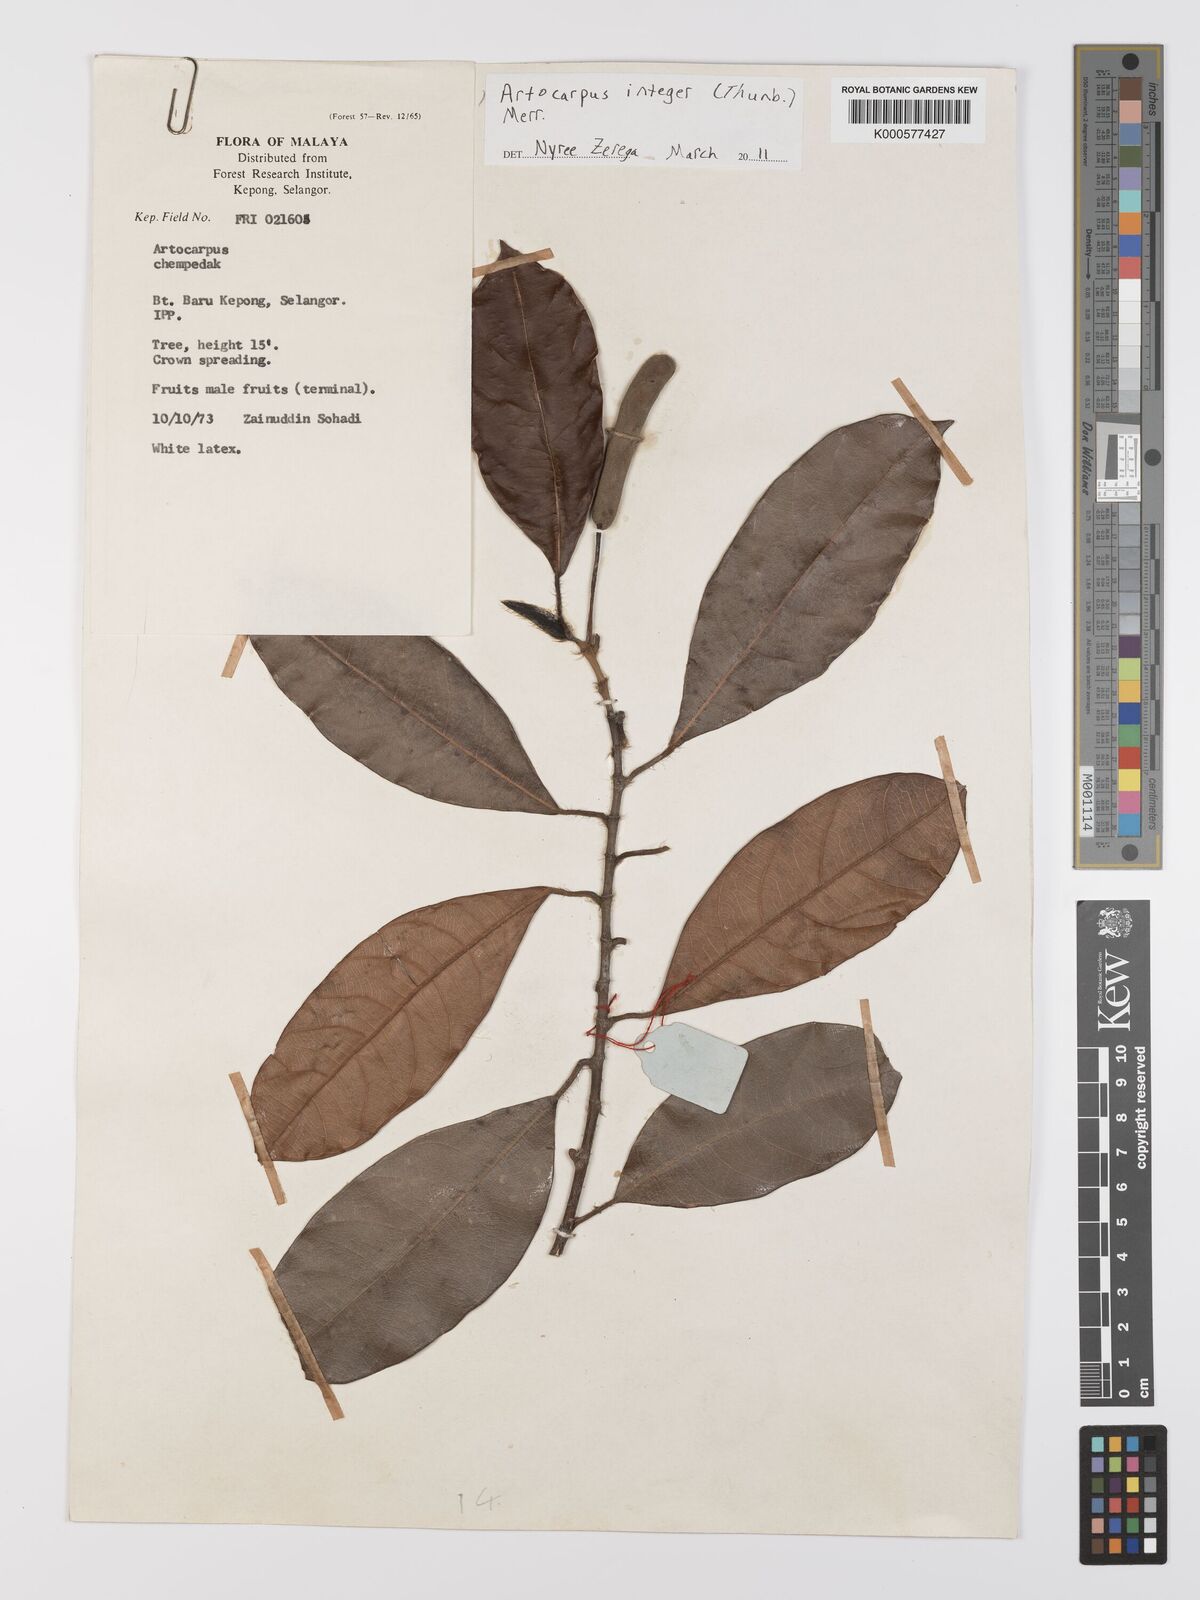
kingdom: Plantae
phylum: Tracheophyta
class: Magnoliopsida
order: Rosales
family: Moraceae
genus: Artocarpus
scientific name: Artocarpus integer
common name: Chempedak
